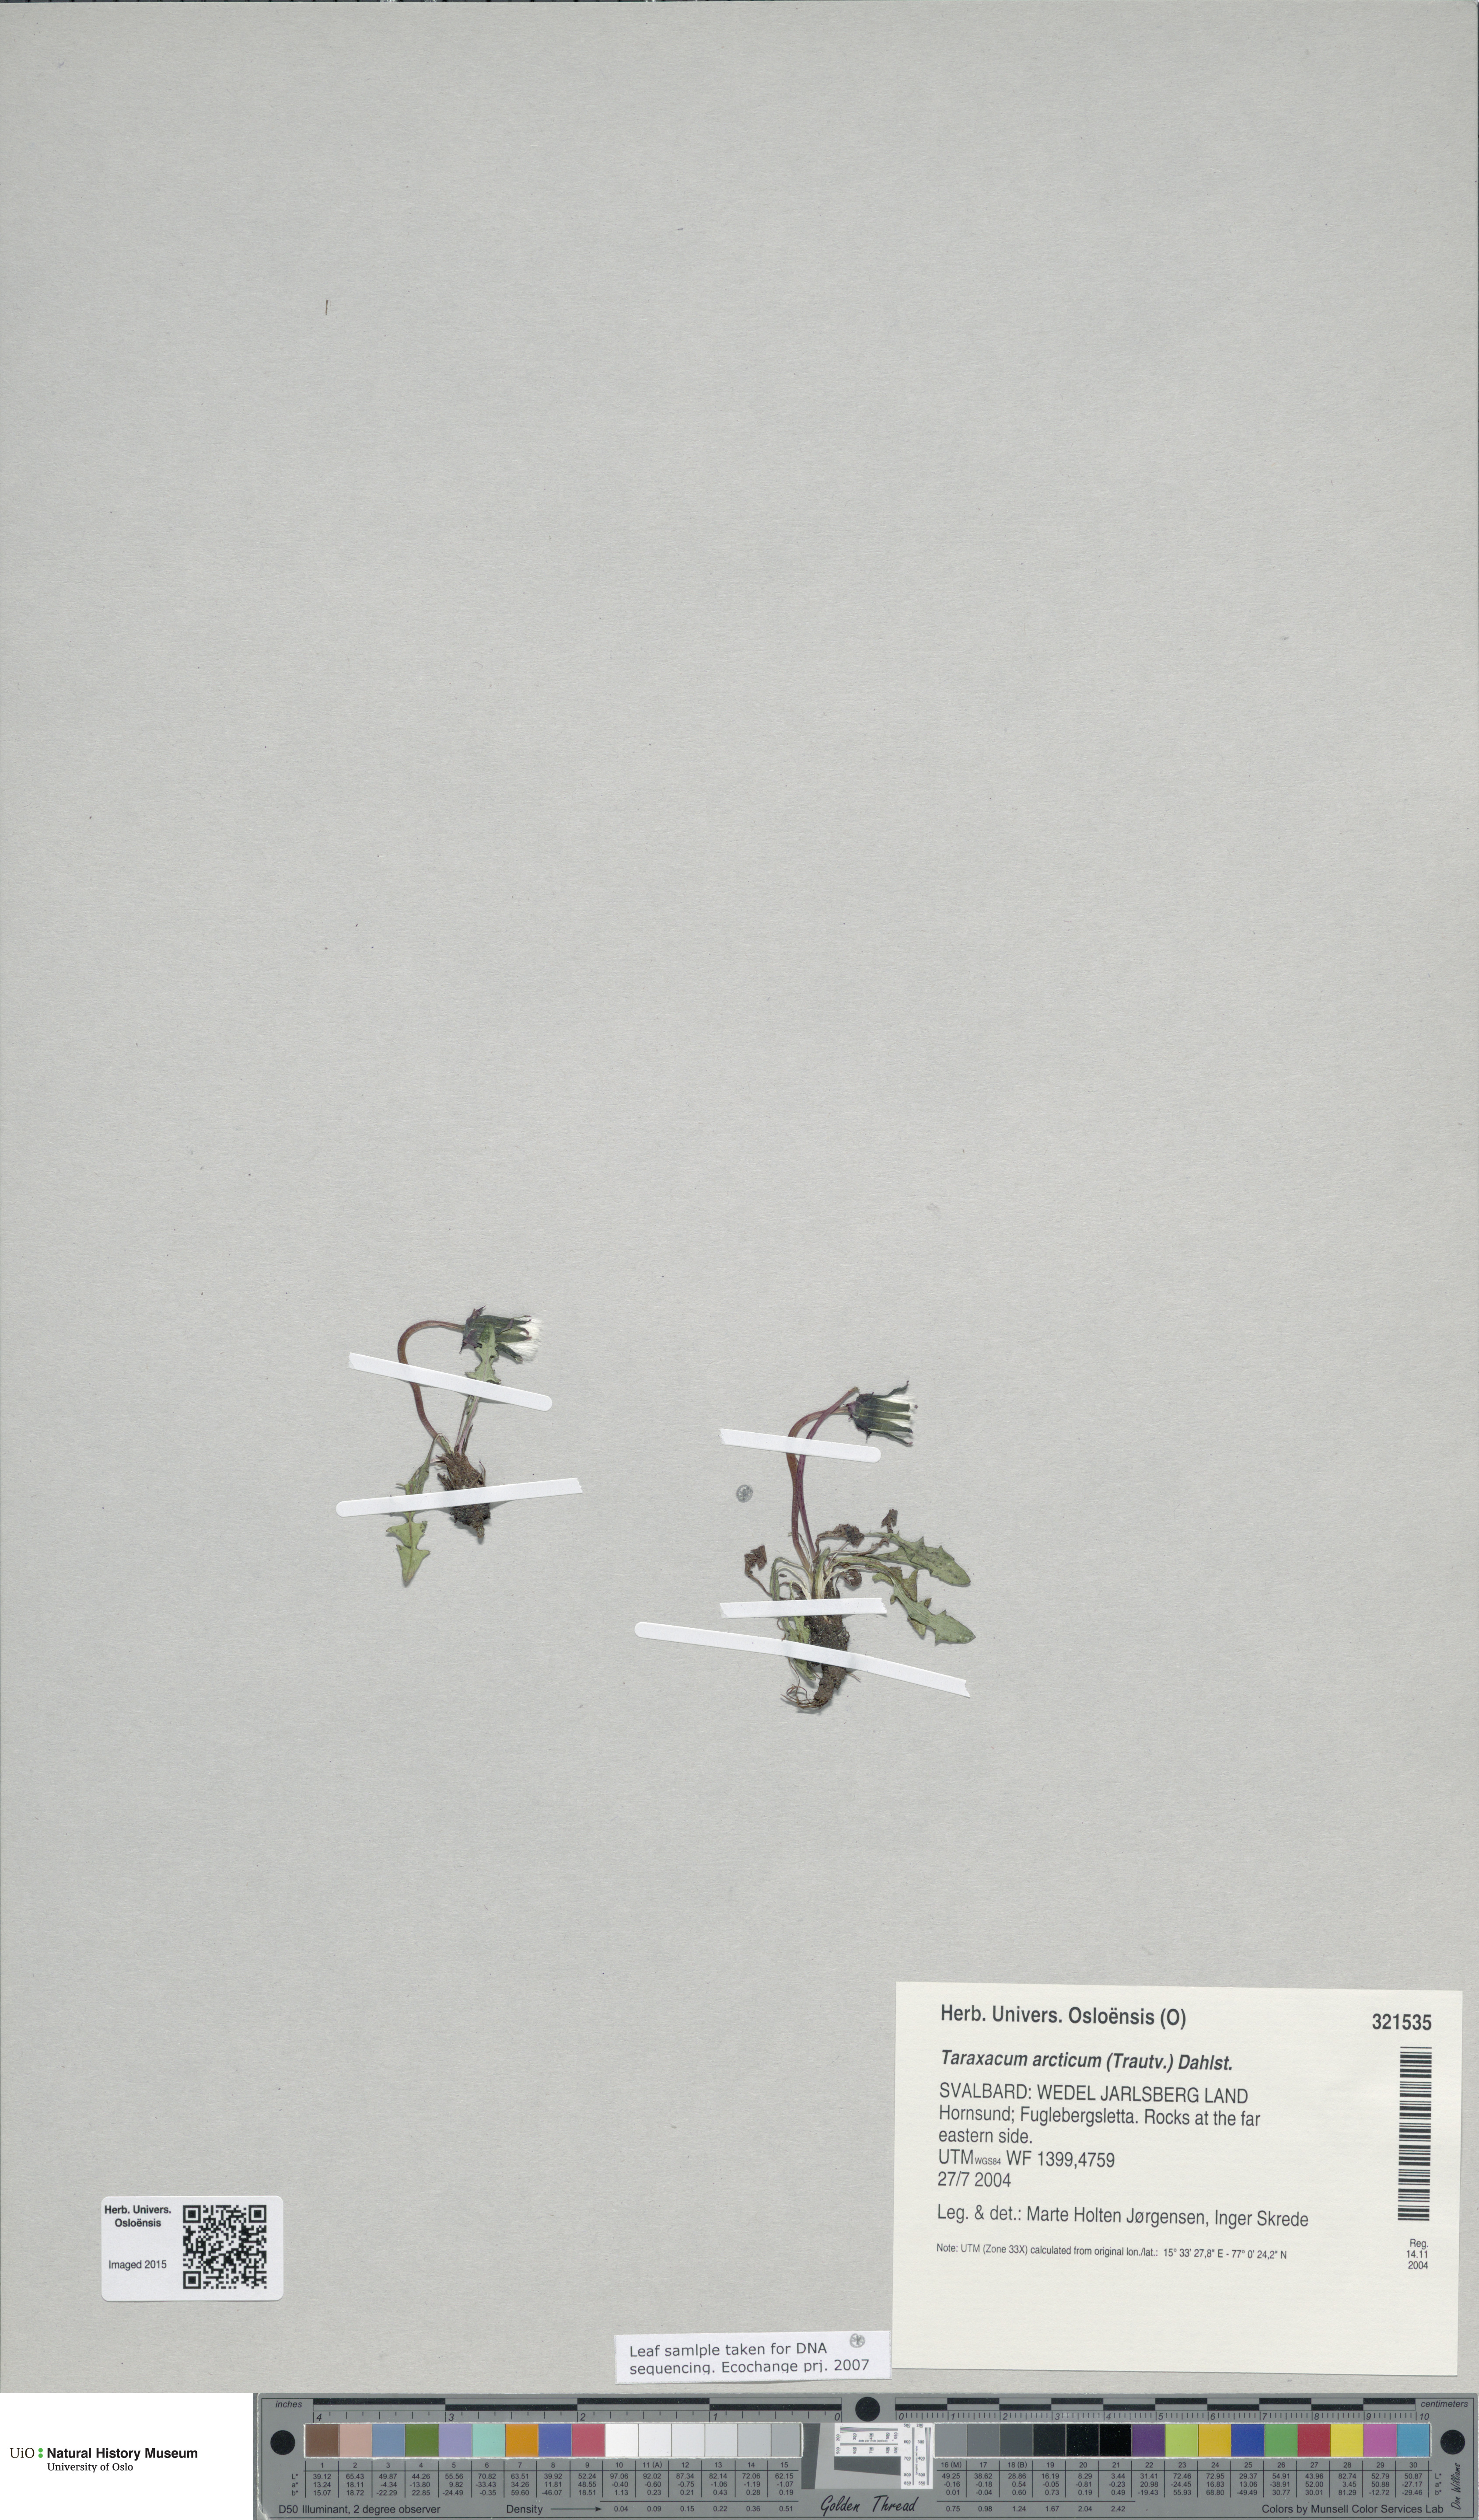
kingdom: Plantae
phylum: Tracheophyta
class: Magnoliopsida
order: Asterales
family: Asteraceae
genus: Taraxacum
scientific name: Taraxacum arcticum
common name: Arctic dandelion
